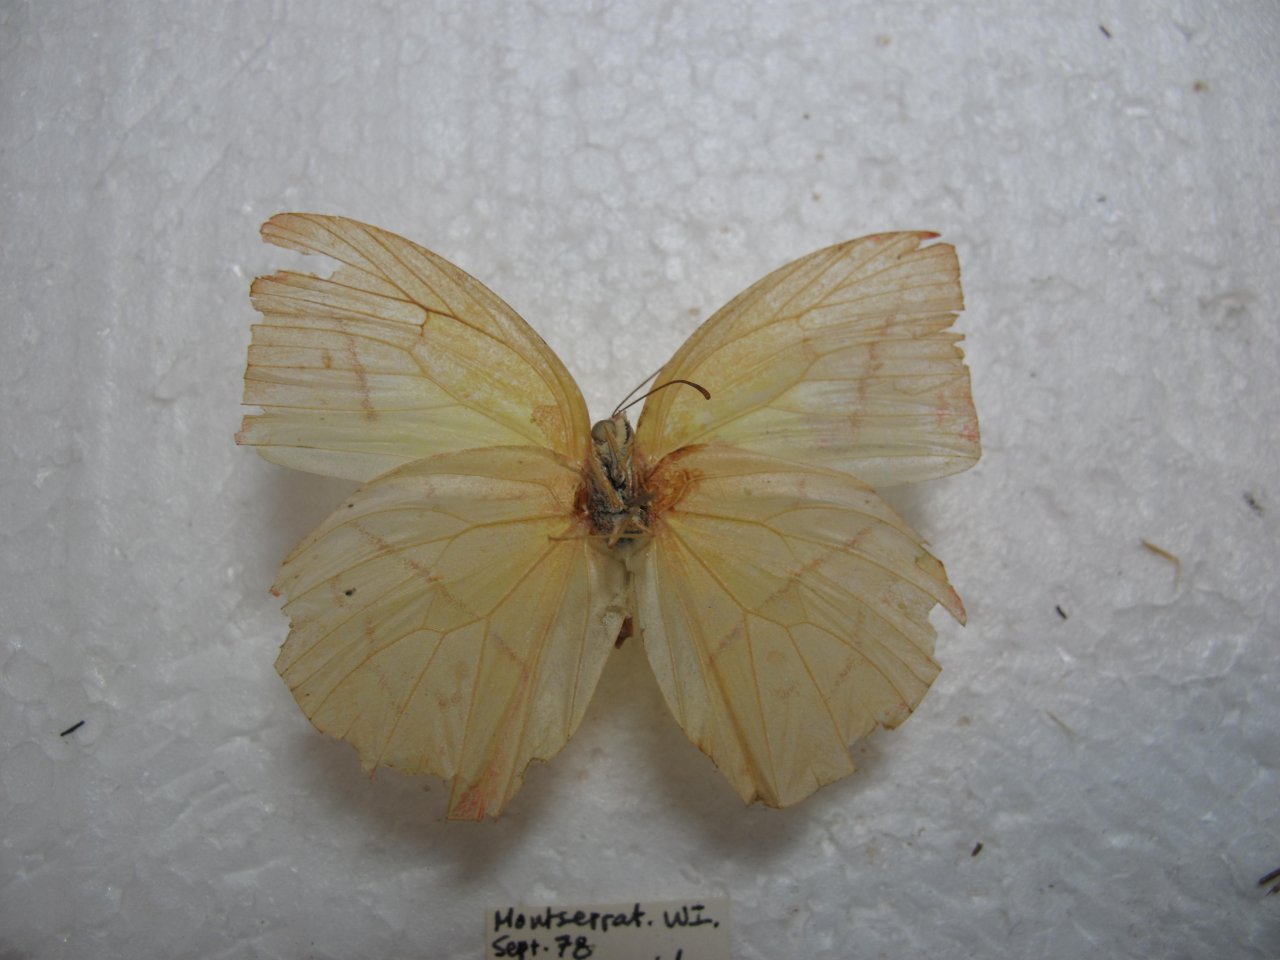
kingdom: Animalia
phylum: Arthropoda
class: Insecta
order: Lepidoptera
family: Pieridae
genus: Rhabdodryas
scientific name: Rhabdodryas trite
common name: Straight-lined Sulphur
